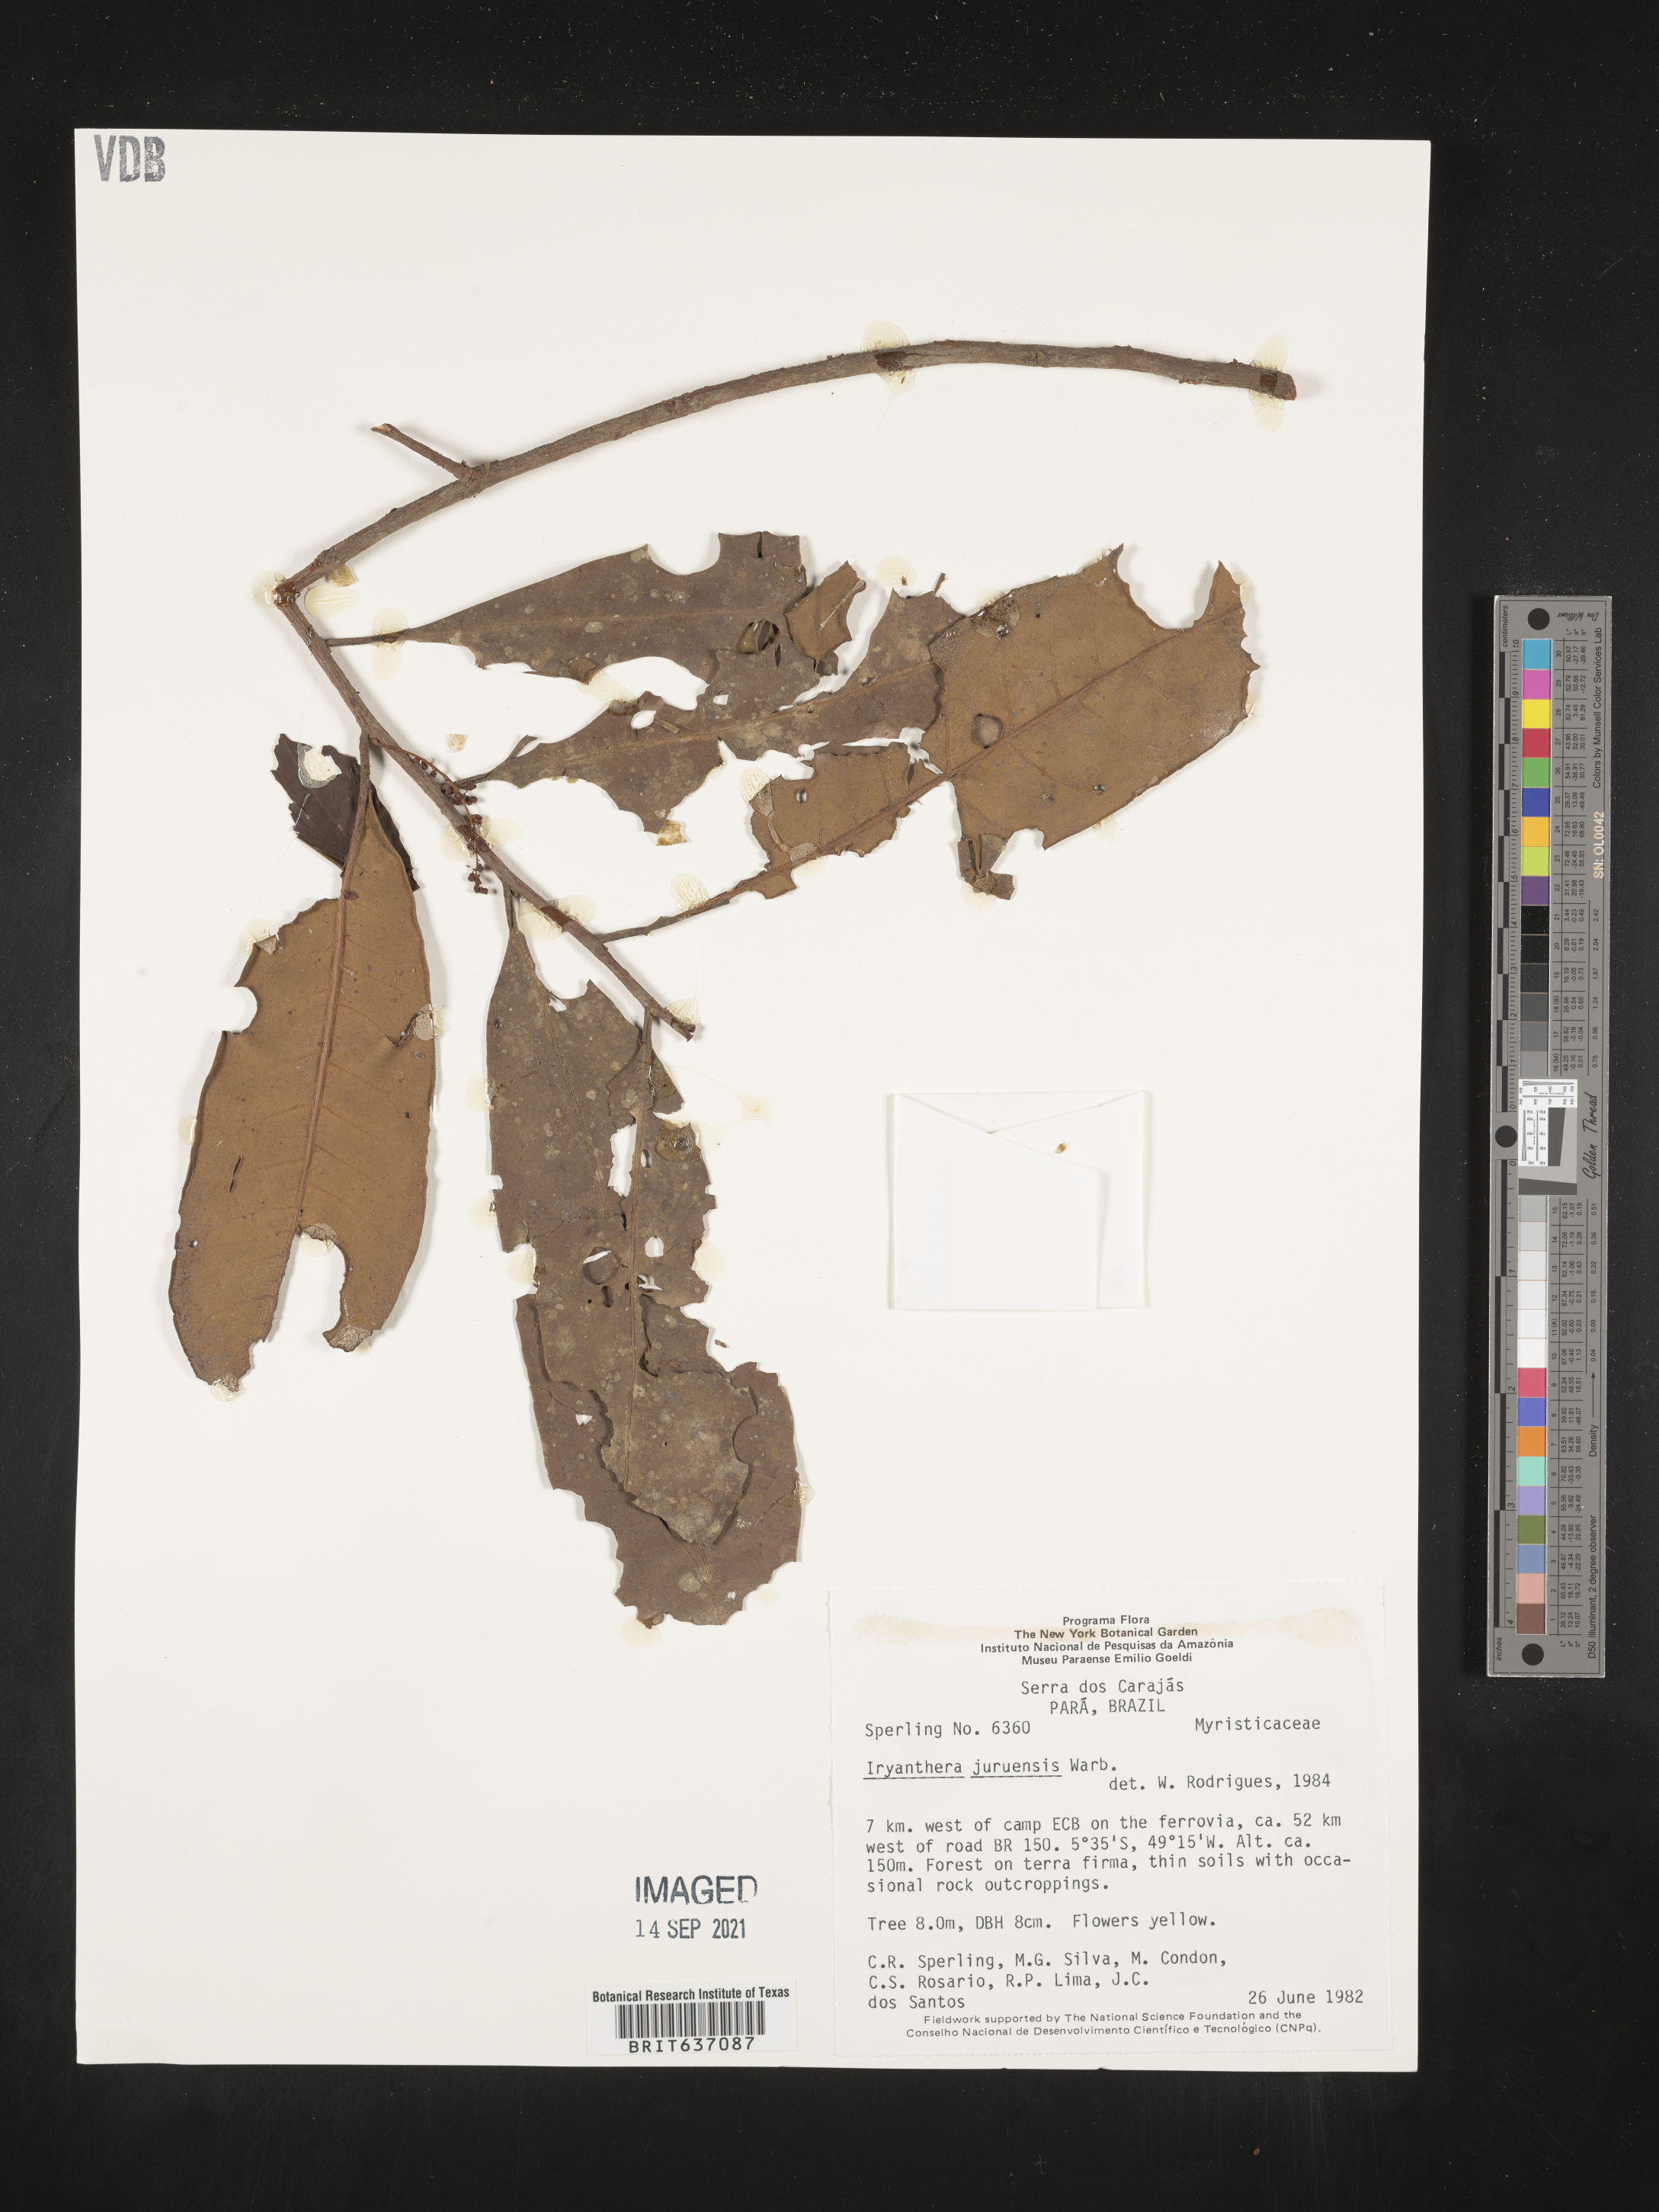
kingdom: Plantae
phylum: Tracheophyta
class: Magnoliopsida
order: Magnoliales
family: Myristicaceae
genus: Iryanthera
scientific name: Iryanthera
